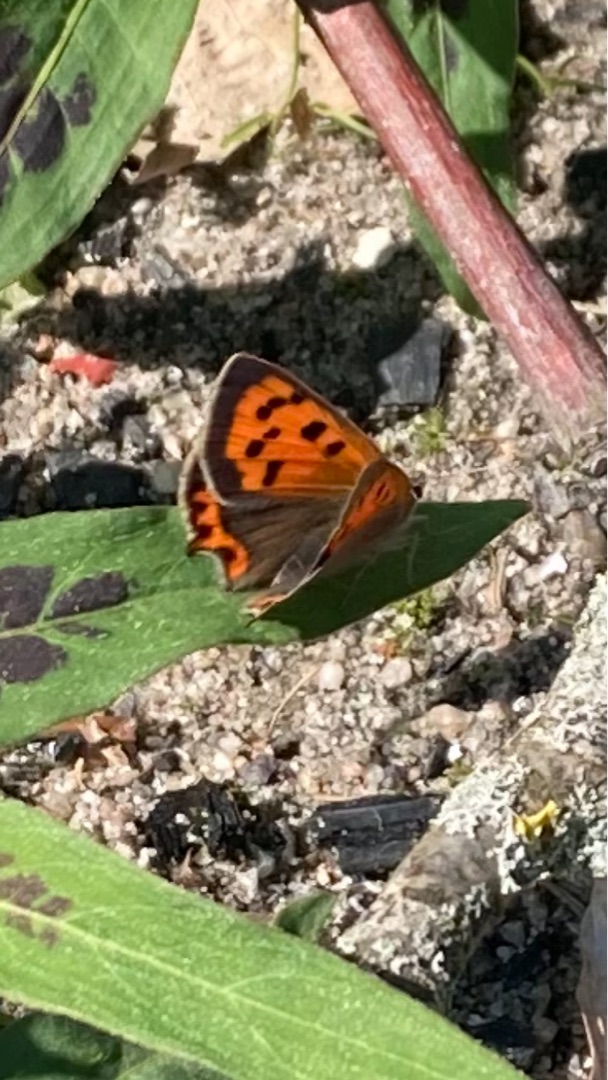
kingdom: Animalia
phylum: Arthropoda
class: Insecta
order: Lepidoptera
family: Lycaenidae
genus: Lycaena
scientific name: Lycaena phlaeas
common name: Lille ildfugl
